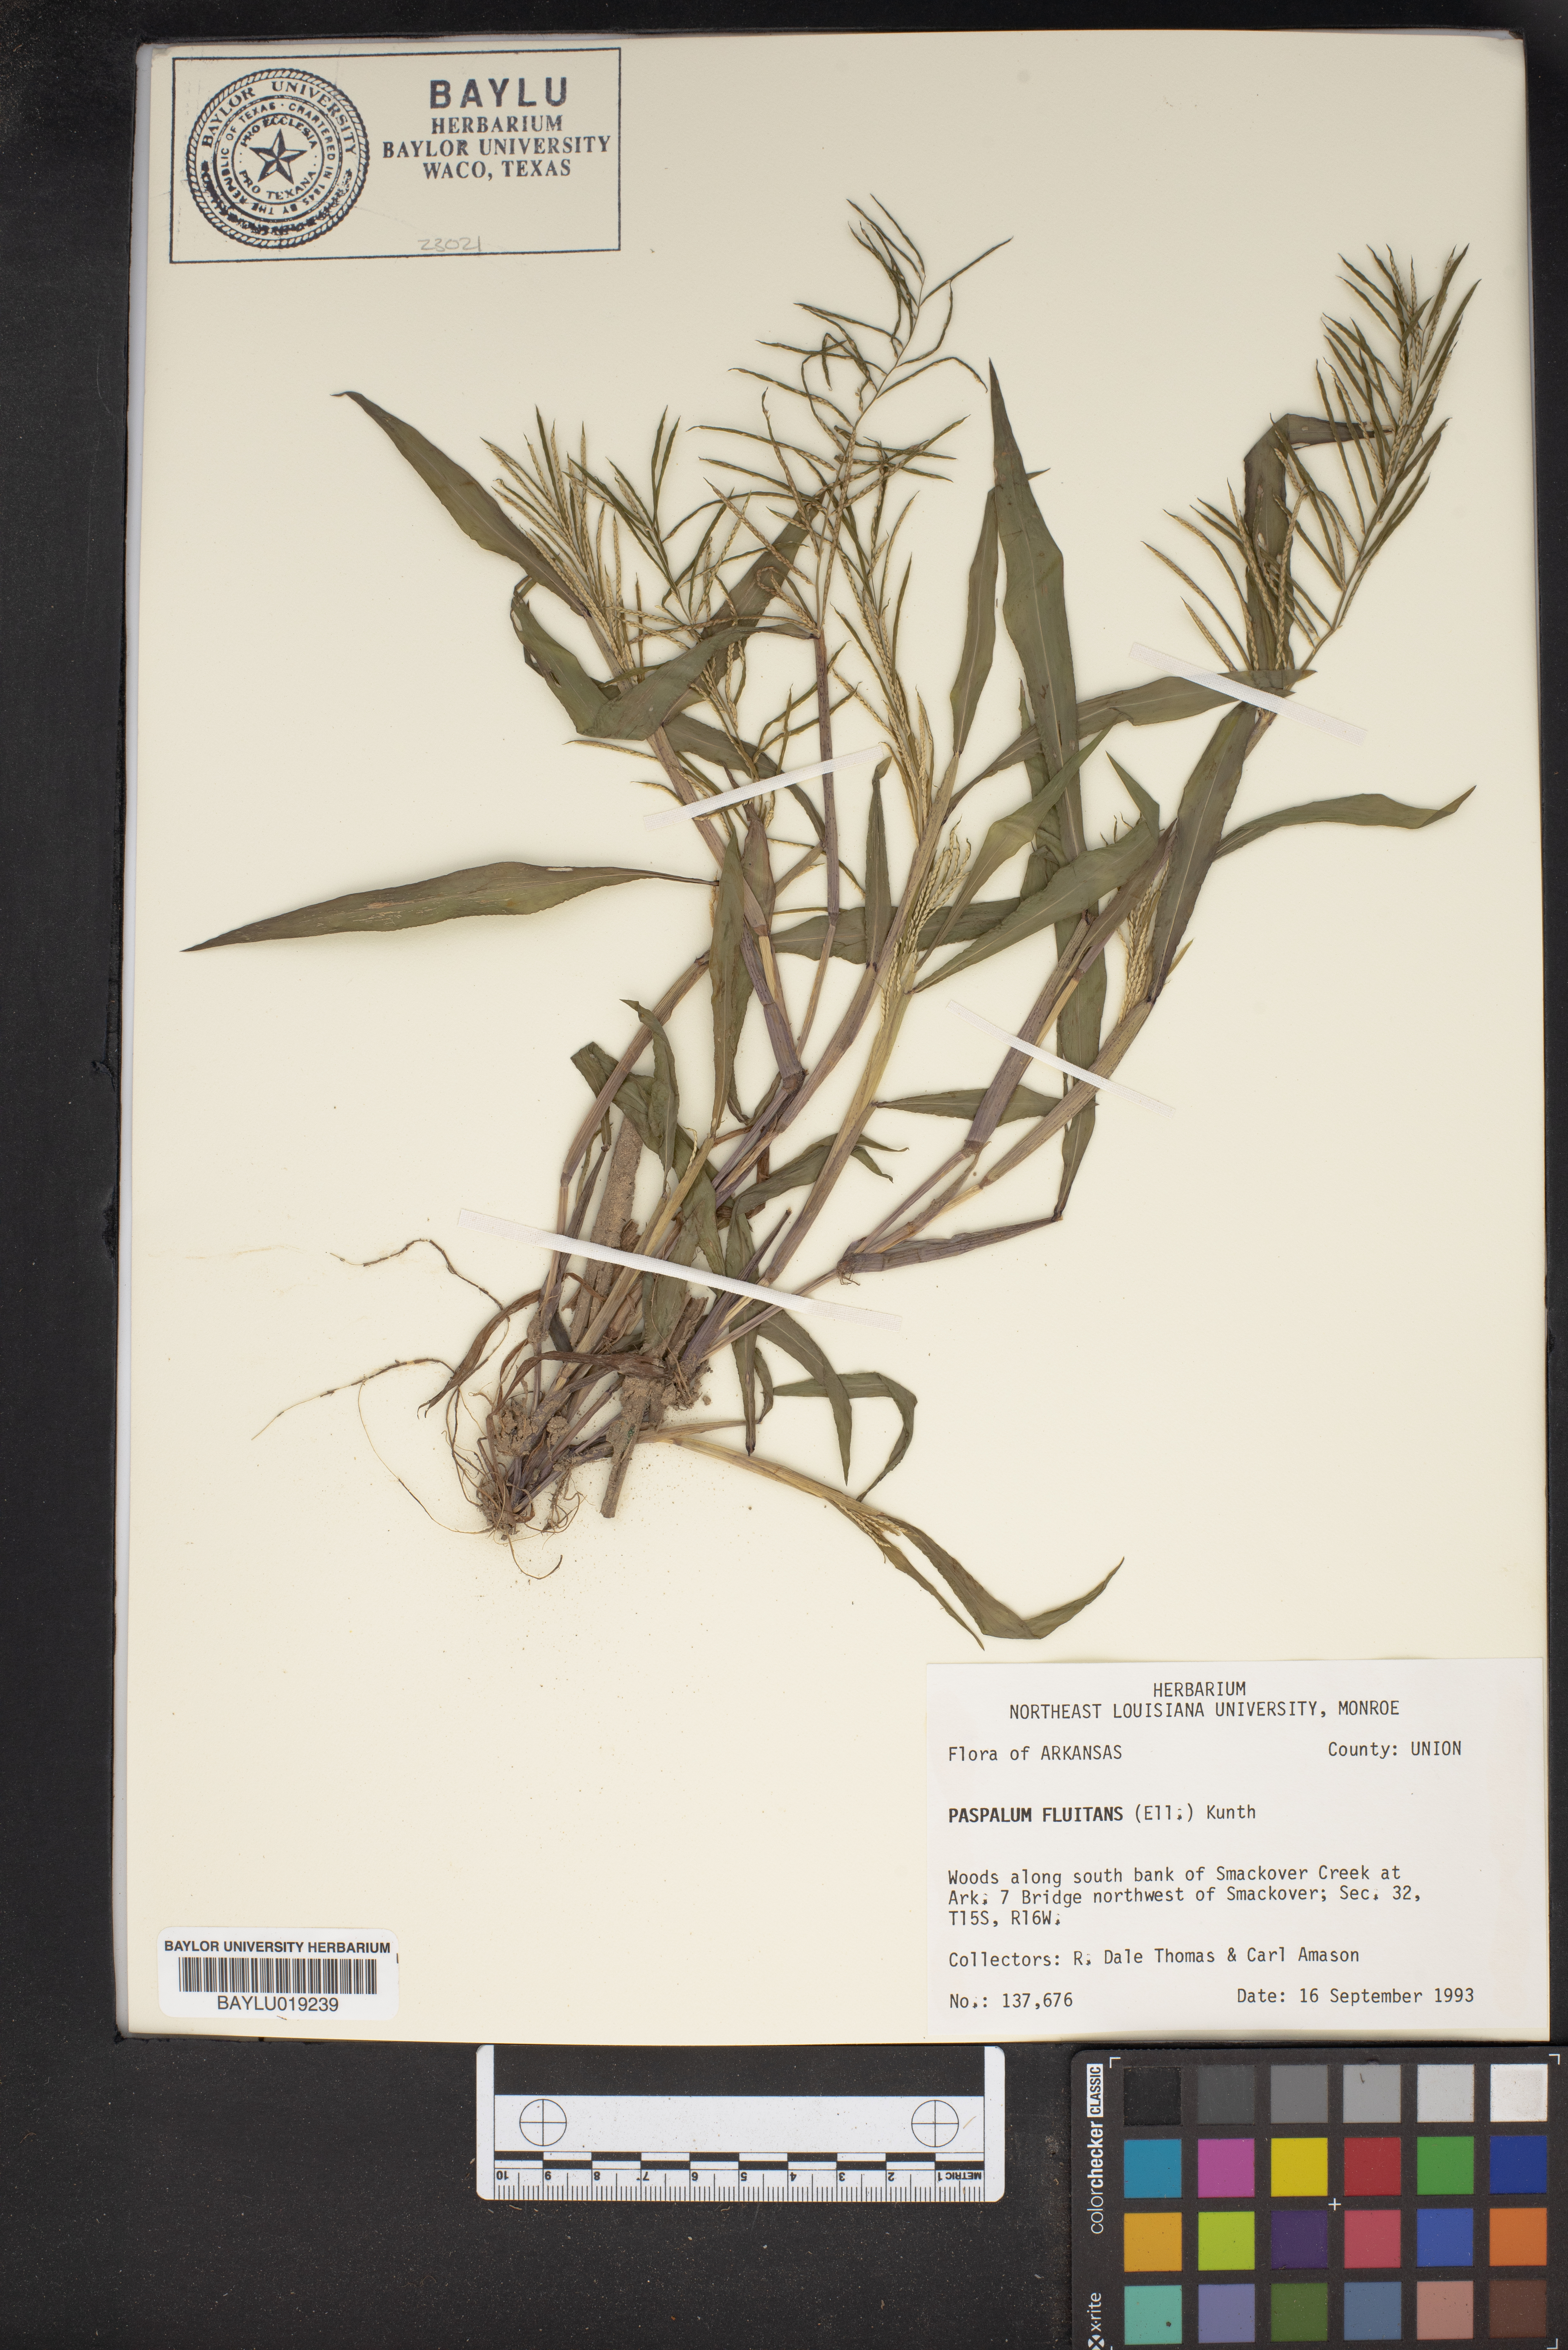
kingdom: Plantae
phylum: Tracheophyta
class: Liliopsida
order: Poales
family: Poaceae
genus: Paspalum
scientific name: Paspalum repens
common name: Water paspalum
